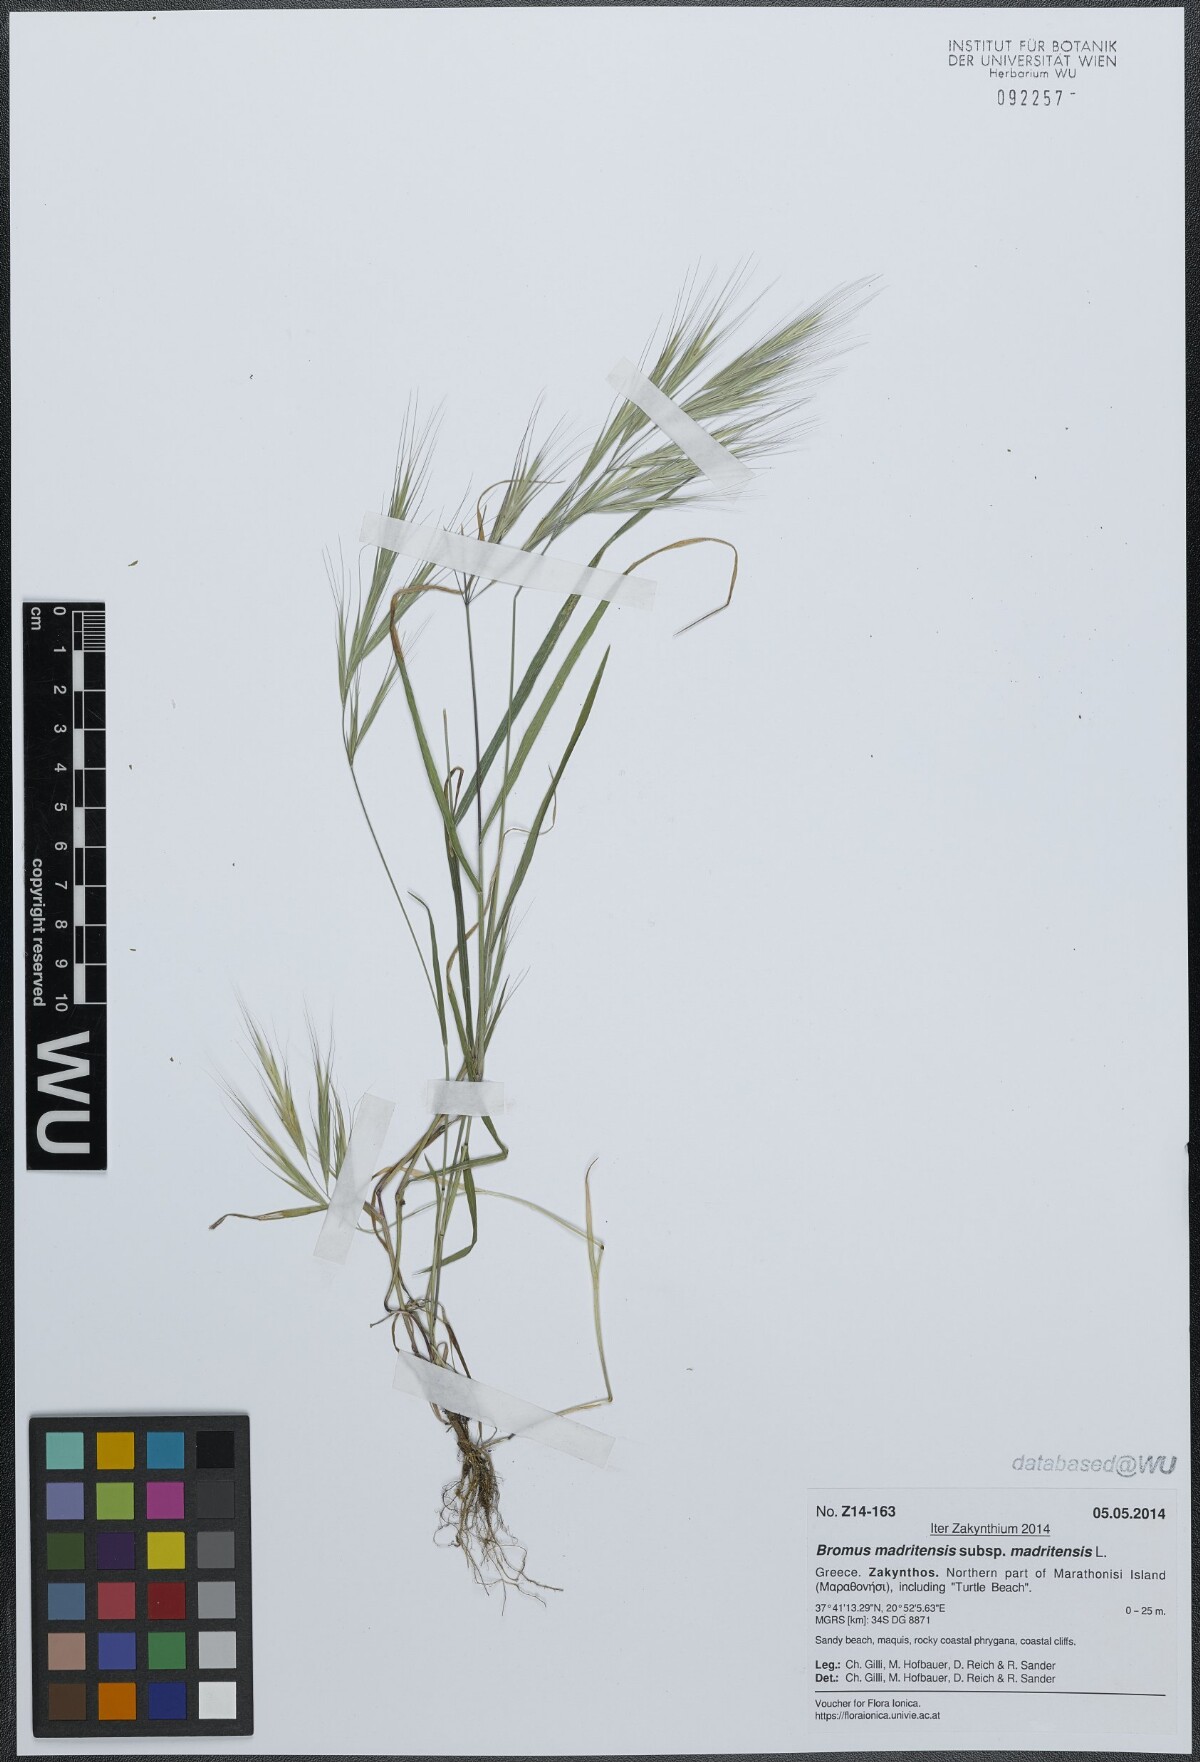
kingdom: Plantae
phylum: Tracheophyta
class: Liliopsida
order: Poales
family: Poaceae
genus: Bromus
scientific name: Bromus madritensis
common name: Compact brome
